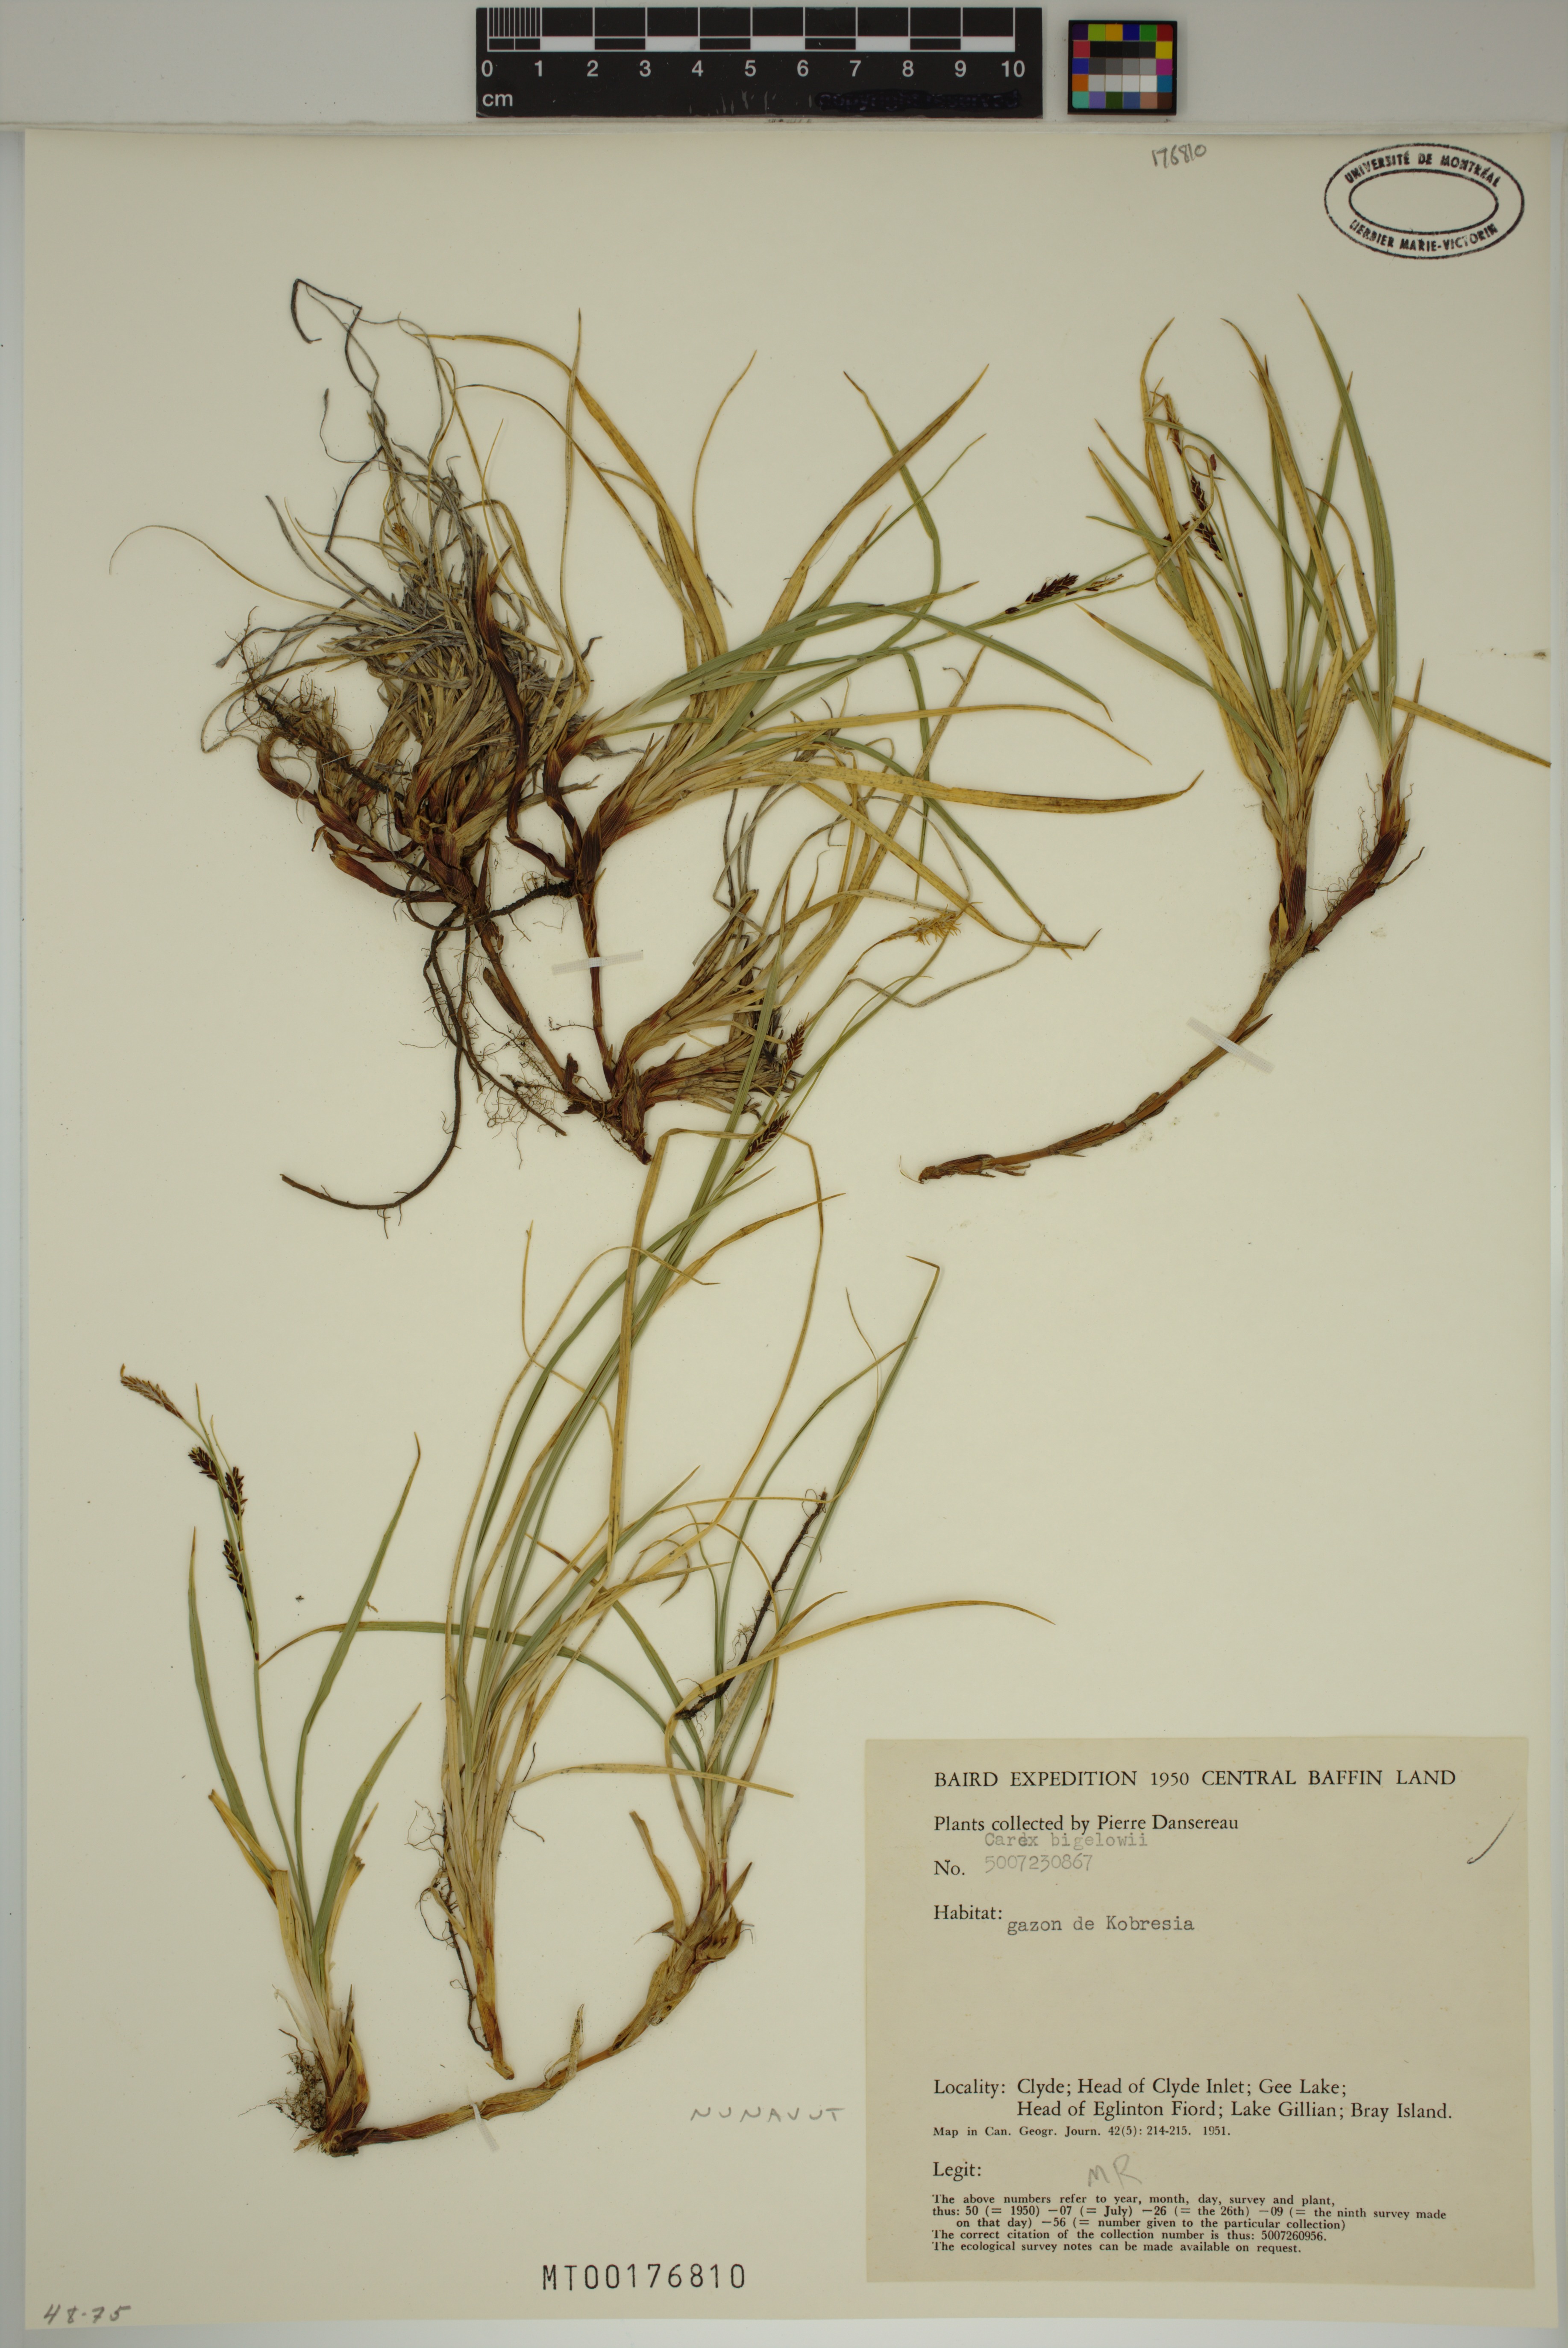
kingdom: Plantae
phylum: Tracheophyta
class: Liliopsida
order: Poales
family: Cyperaceae
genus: Carex
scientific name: Carex bigelowii
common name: Stiff sedge
